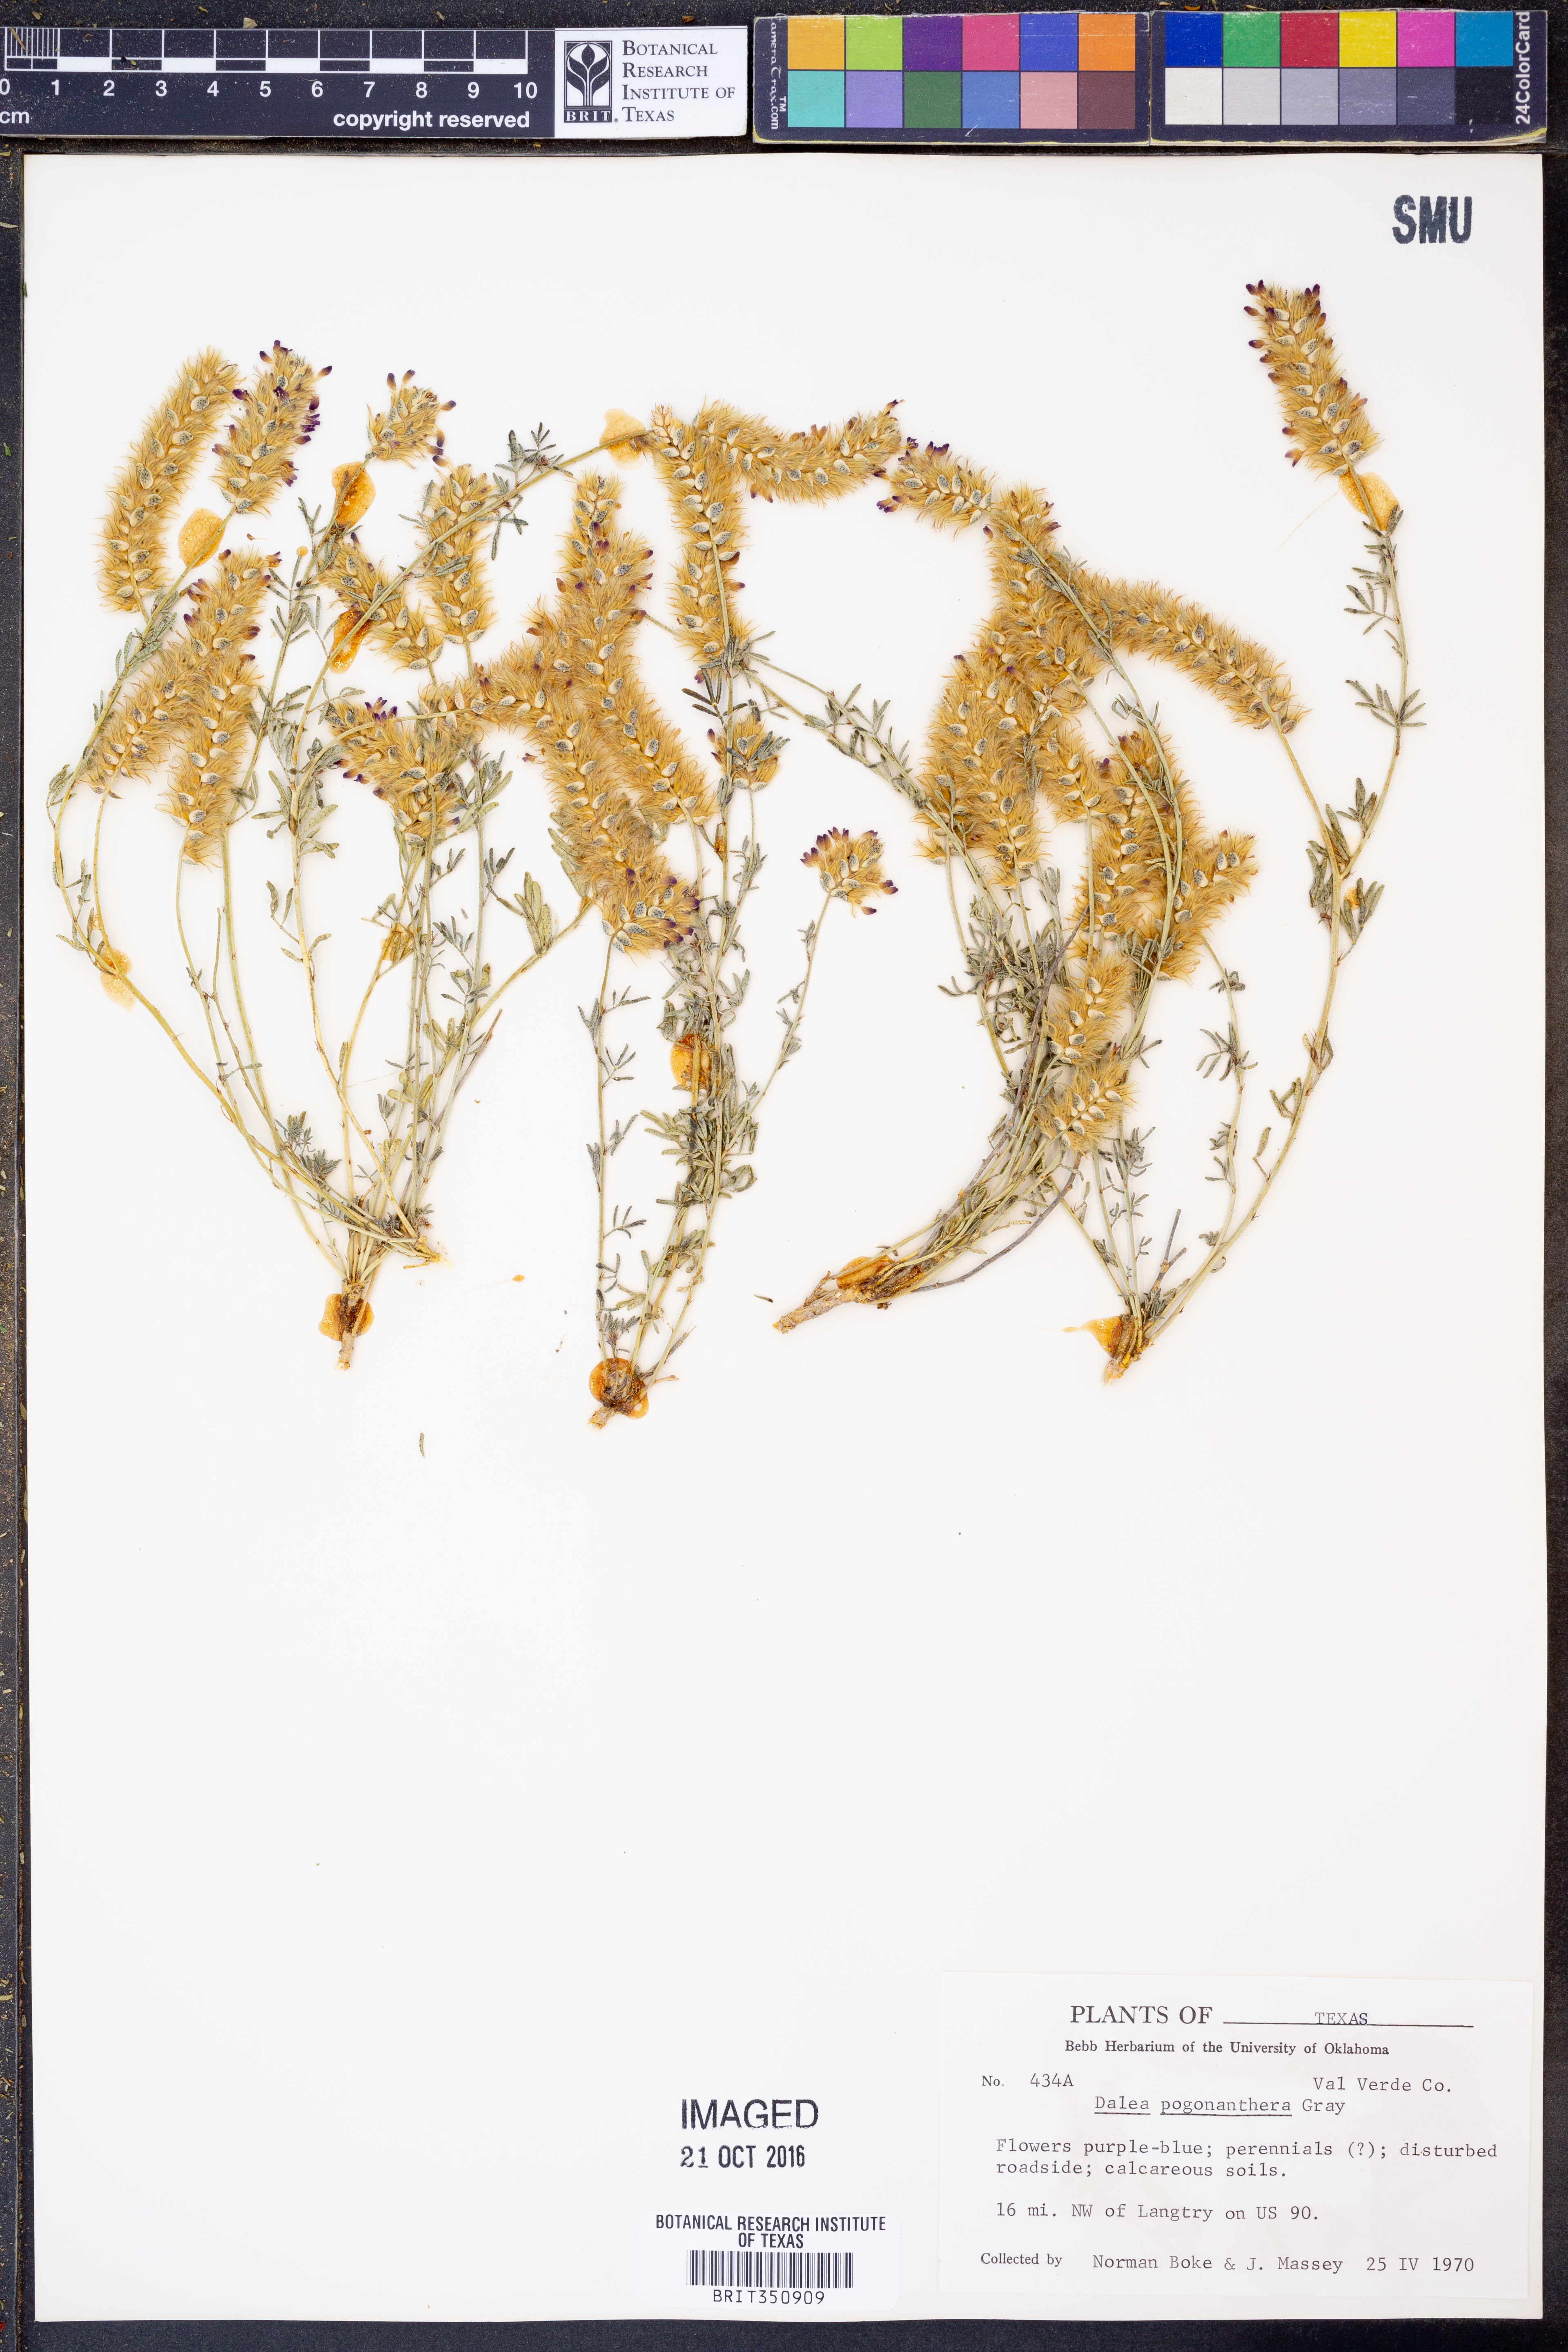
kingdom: Plantae
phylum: Tracheophyta
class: Magnoliopsida
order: Fabales
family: Fabaceae
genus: Dalea
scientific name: Dalea pogonathera
